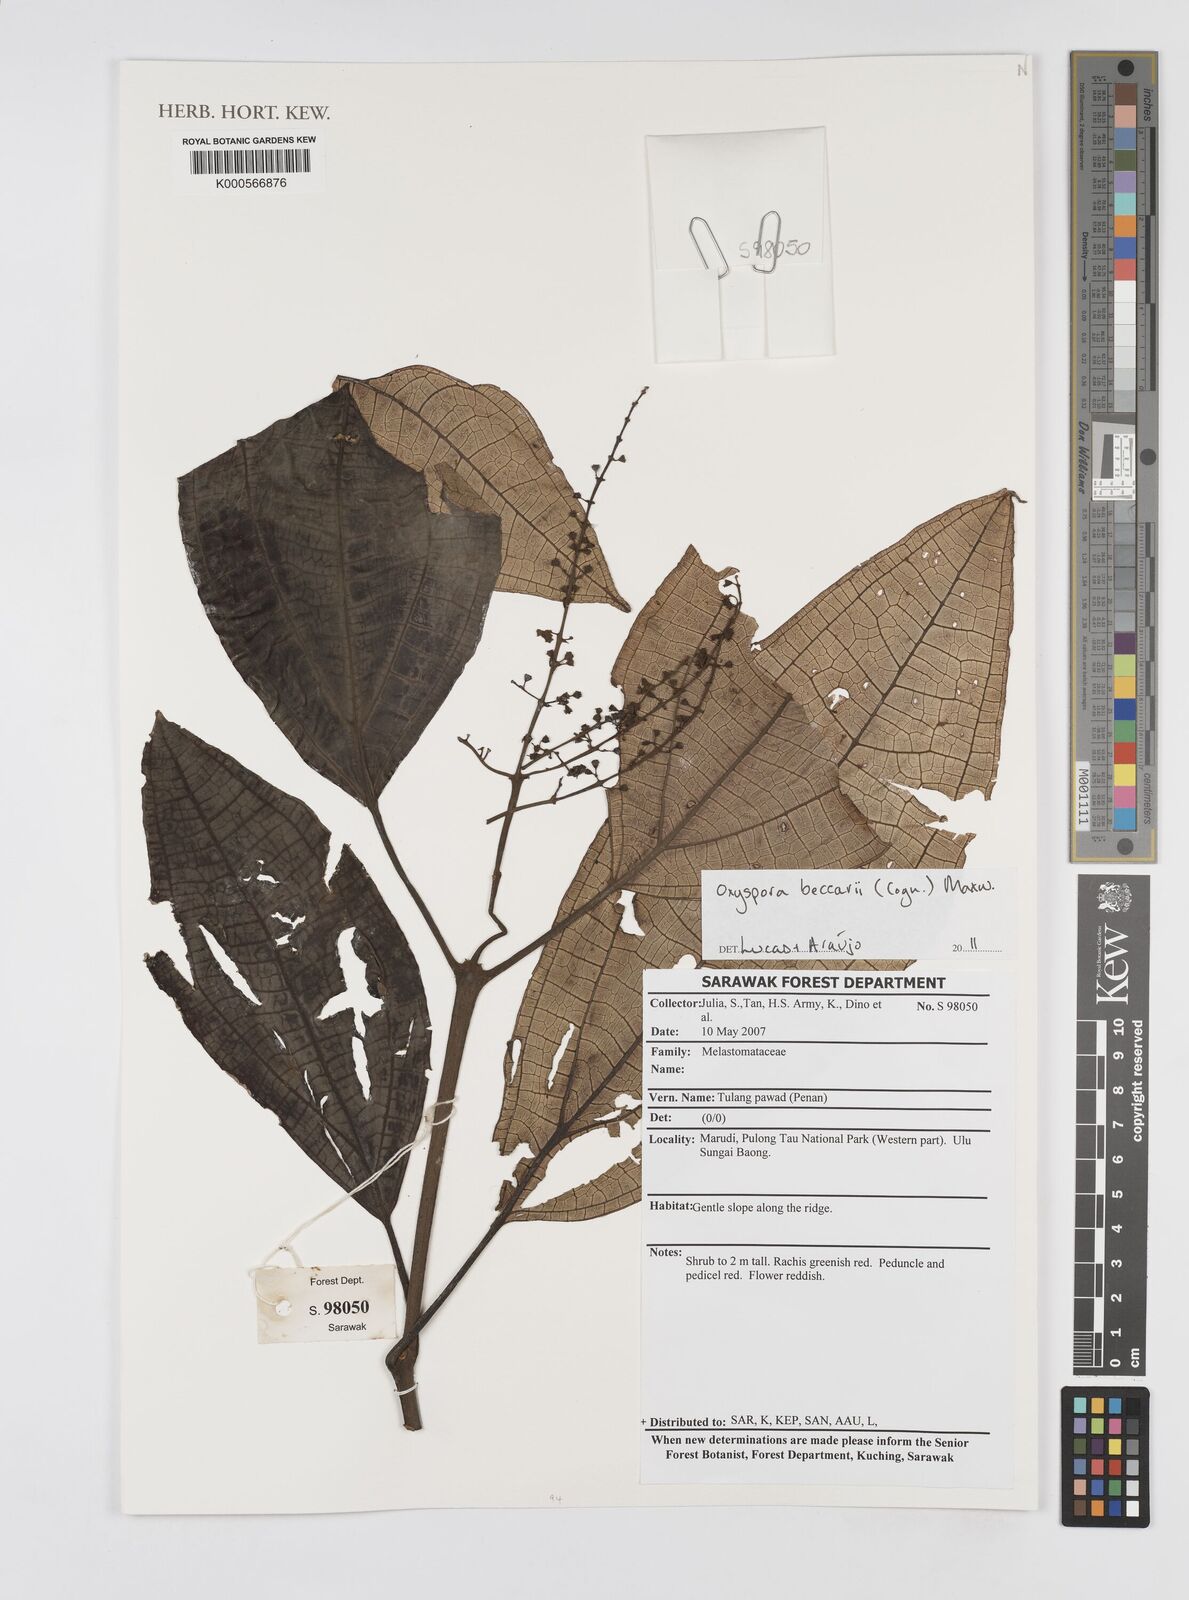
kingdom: Plantae
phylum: Tracheophyta
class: Magnoliopsida
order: Myrtales
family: Melastomataceae
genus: Oxyspora
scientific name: Oxyspora beccarii
